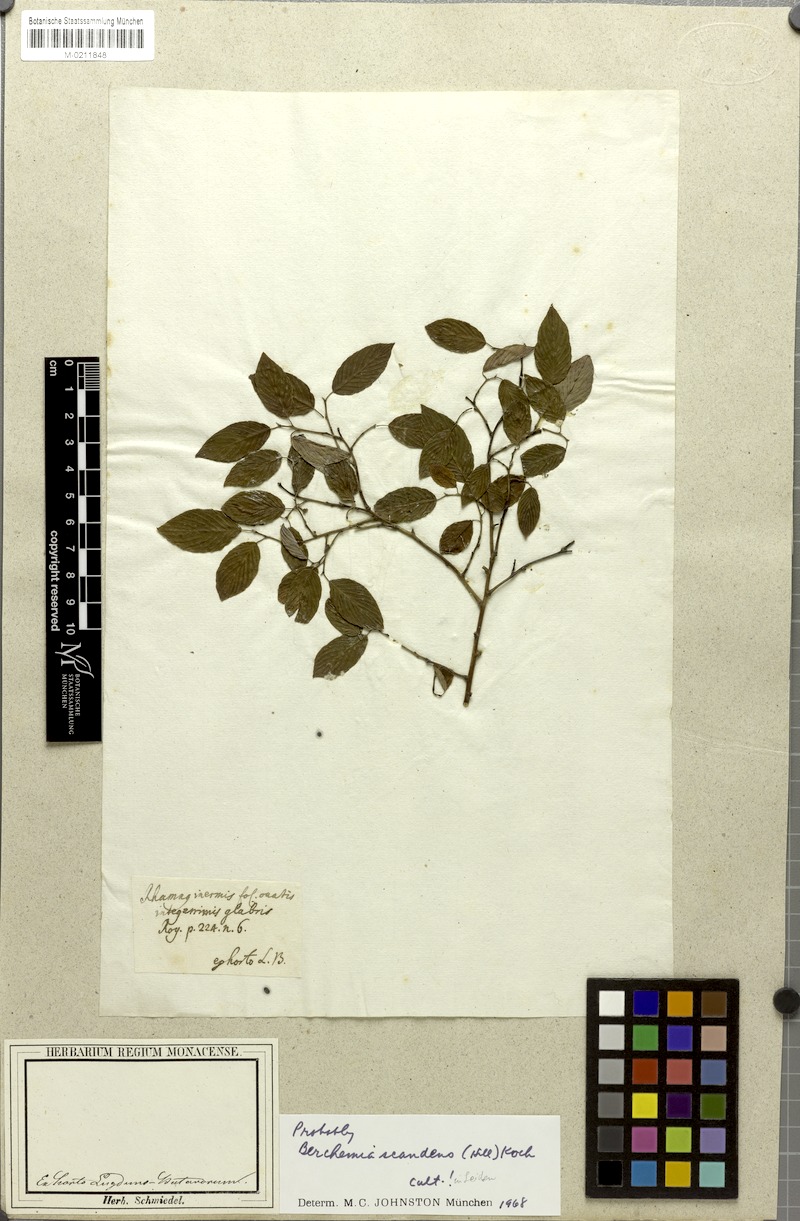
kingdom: Plantae
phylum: Tracheophyta
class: Magnoliopsida
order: Rosales
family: Rhamnaceae
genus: Berchemia
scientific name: Berchemia scandens
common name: Supplejack
